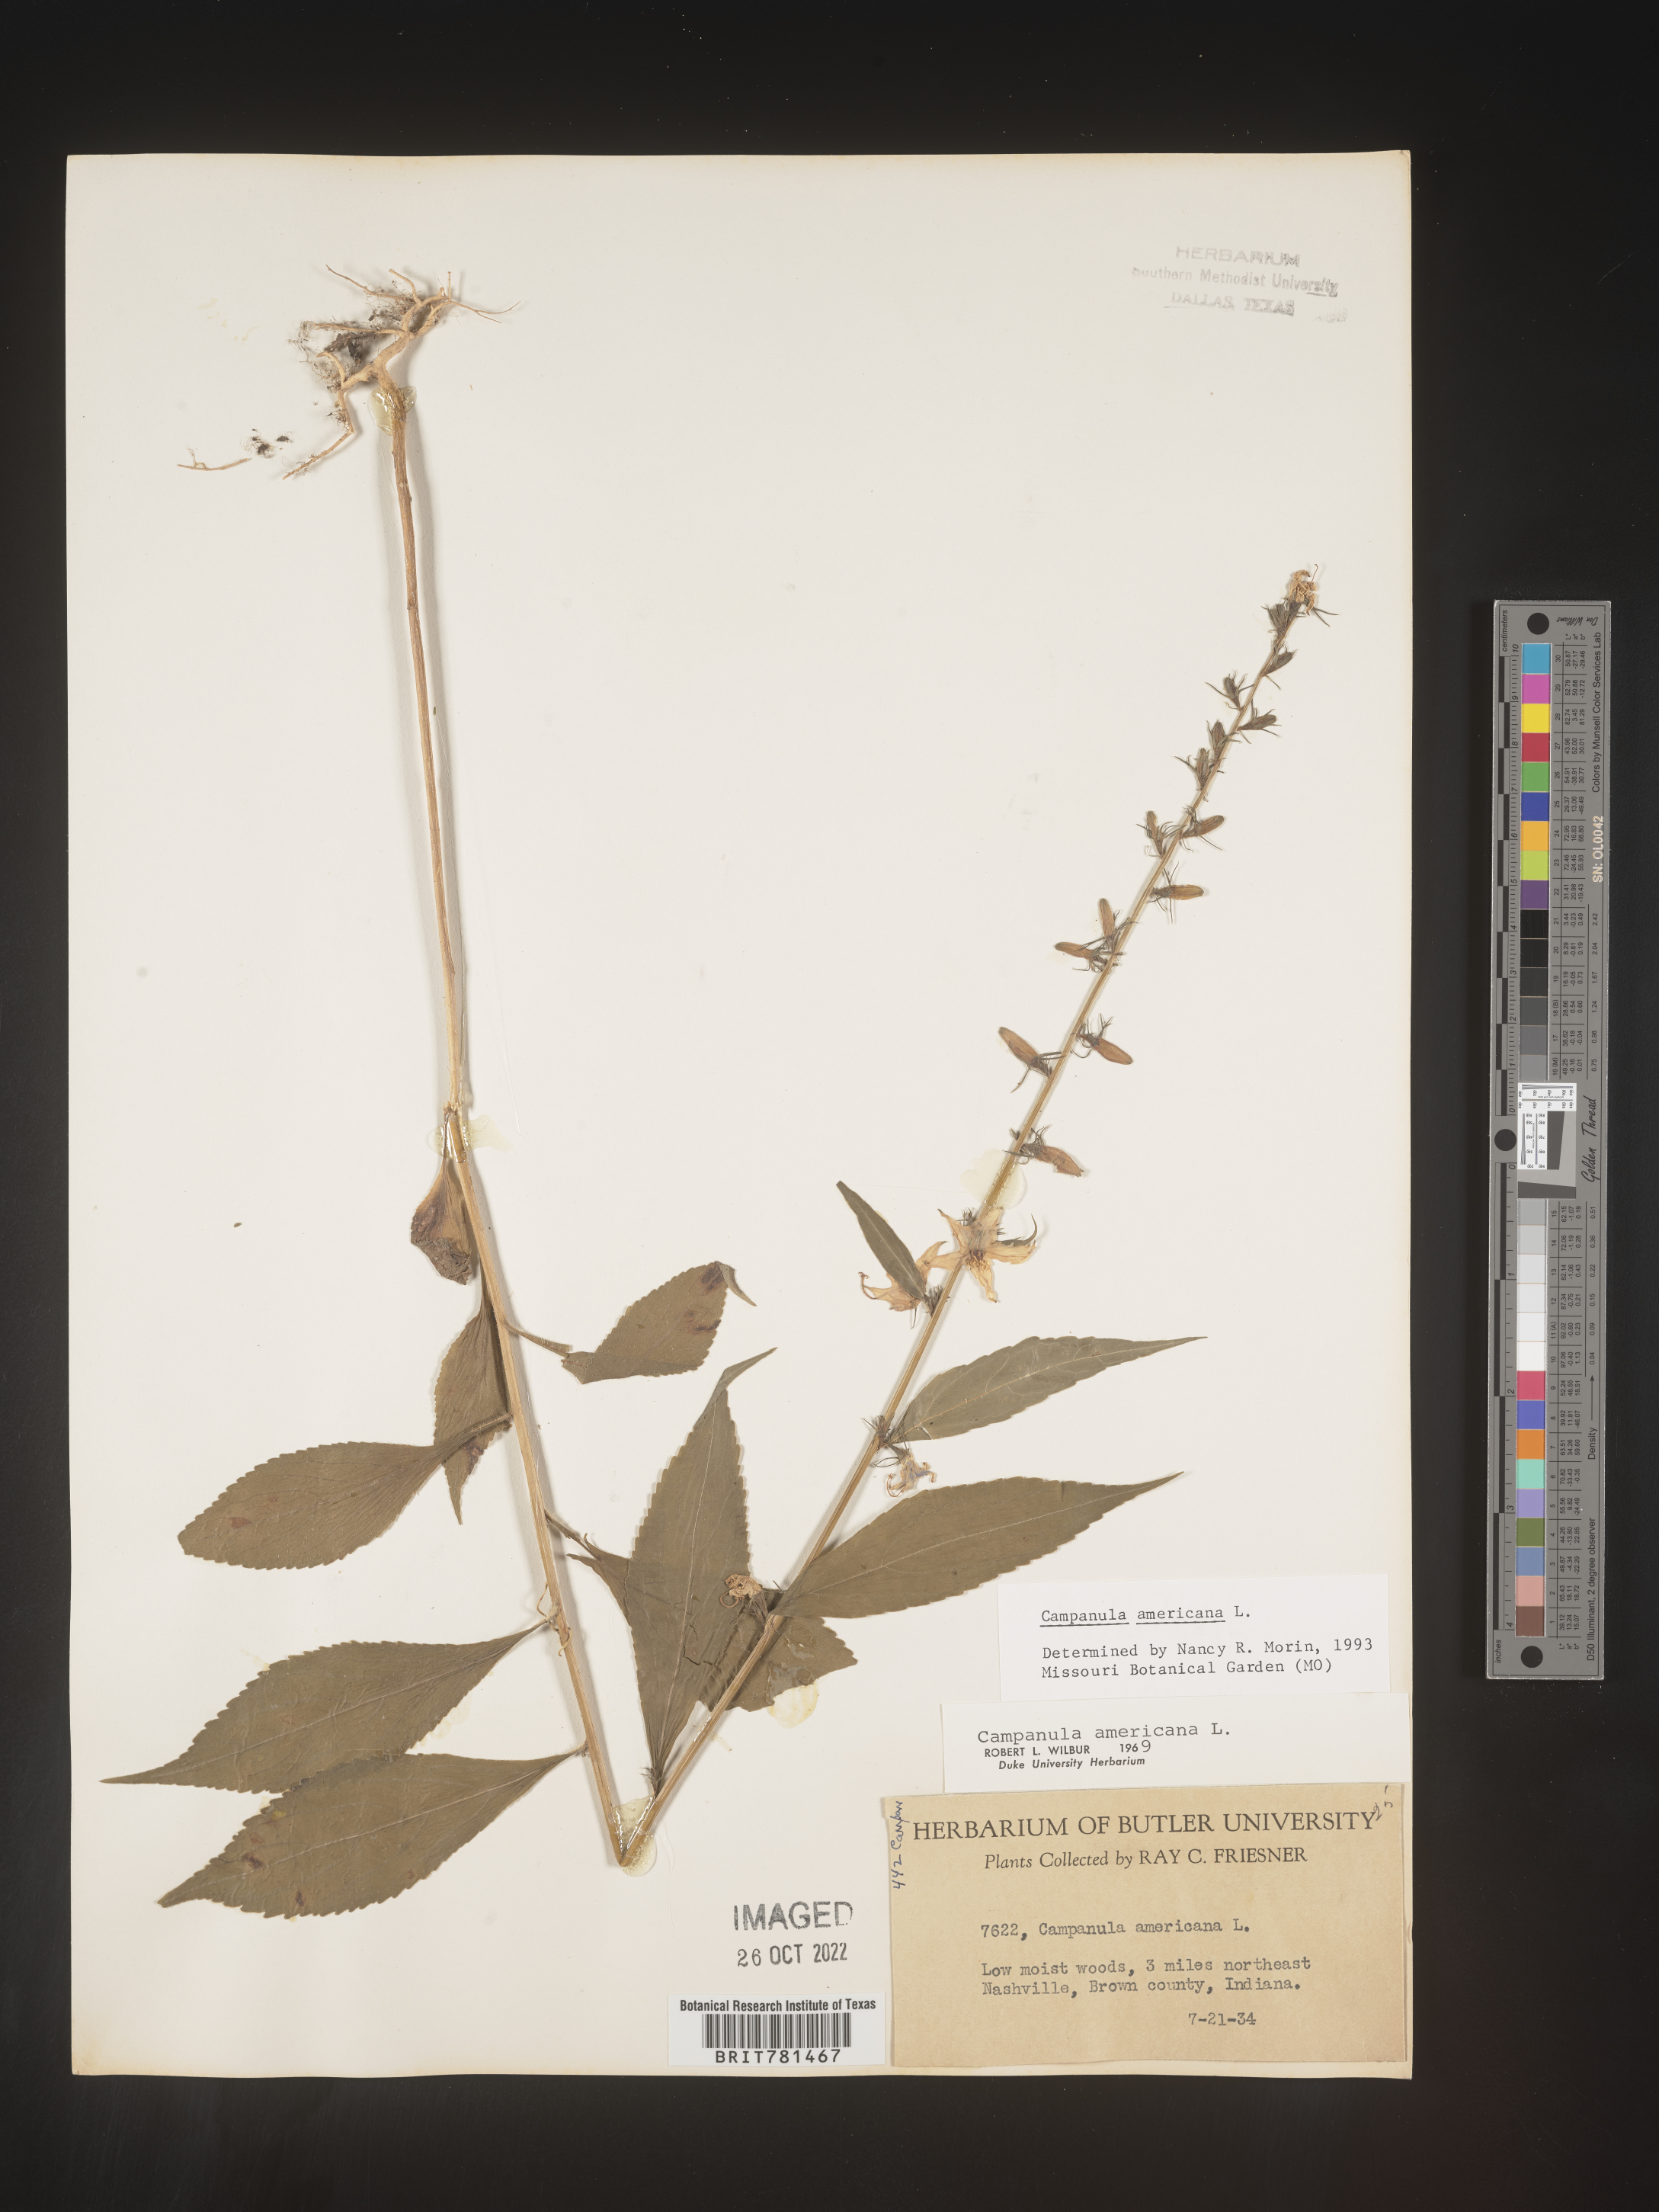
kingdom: Plantae
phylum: Tracheophyta
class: Magnoliopsida
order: Asterales
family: Campanulaceae
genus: Campanula
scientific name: Campanula americana
